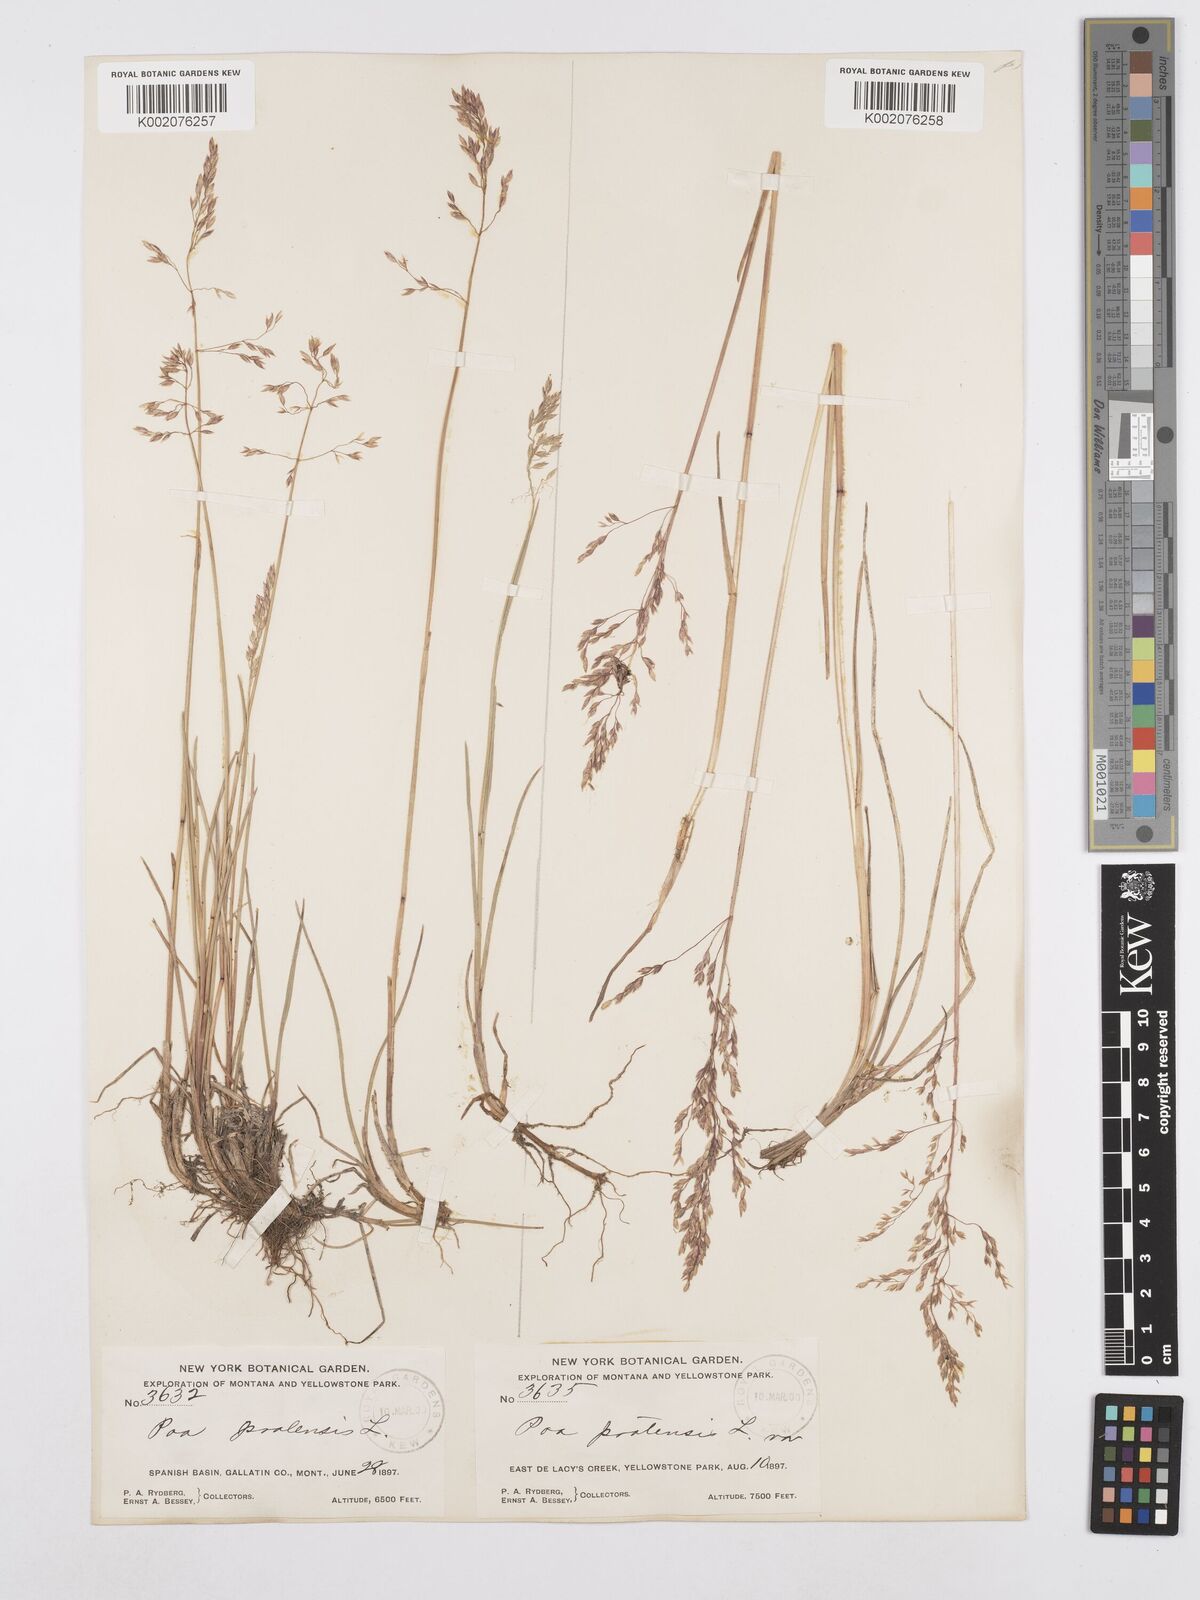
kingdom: Plantae
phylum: Tracheophyta
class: Liliopsida
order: Poales
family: Poaceae
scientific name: Poaceae
